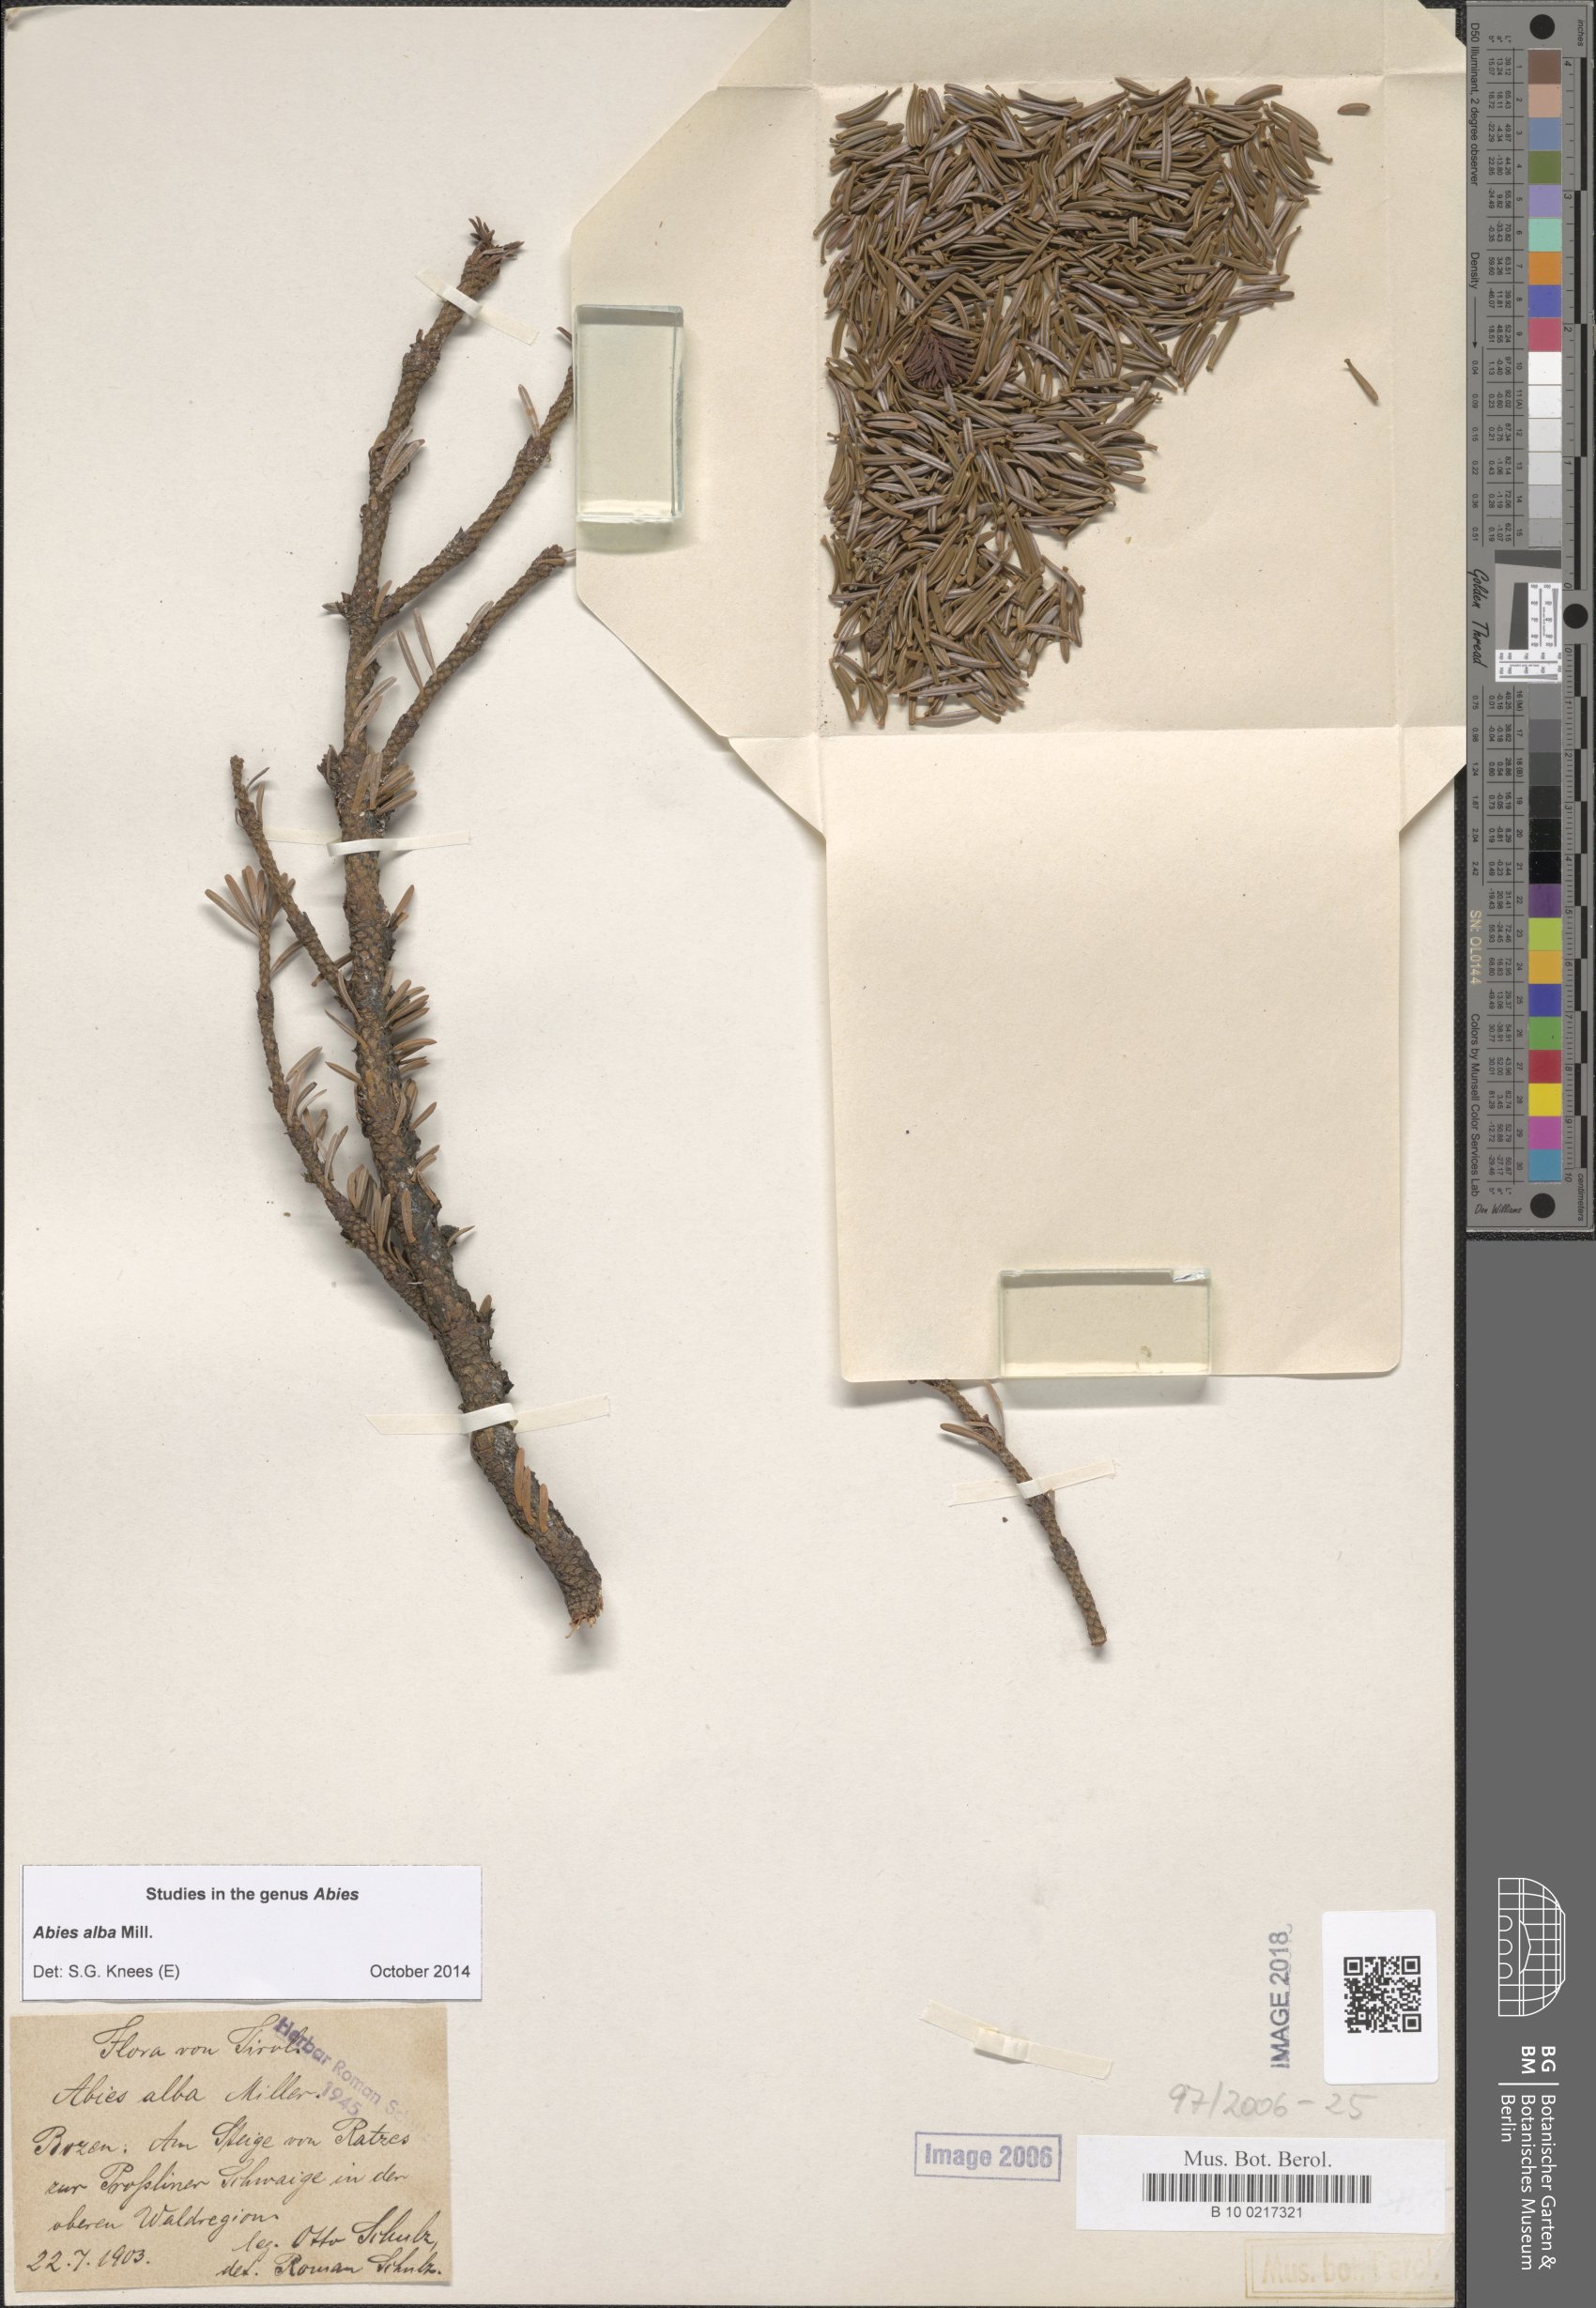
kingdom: Plantae
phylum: Tracheophyta
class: Pinopsida
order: Pinales
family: Pinaceae
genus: Abies
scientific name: Abies alba
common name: Silver fir
